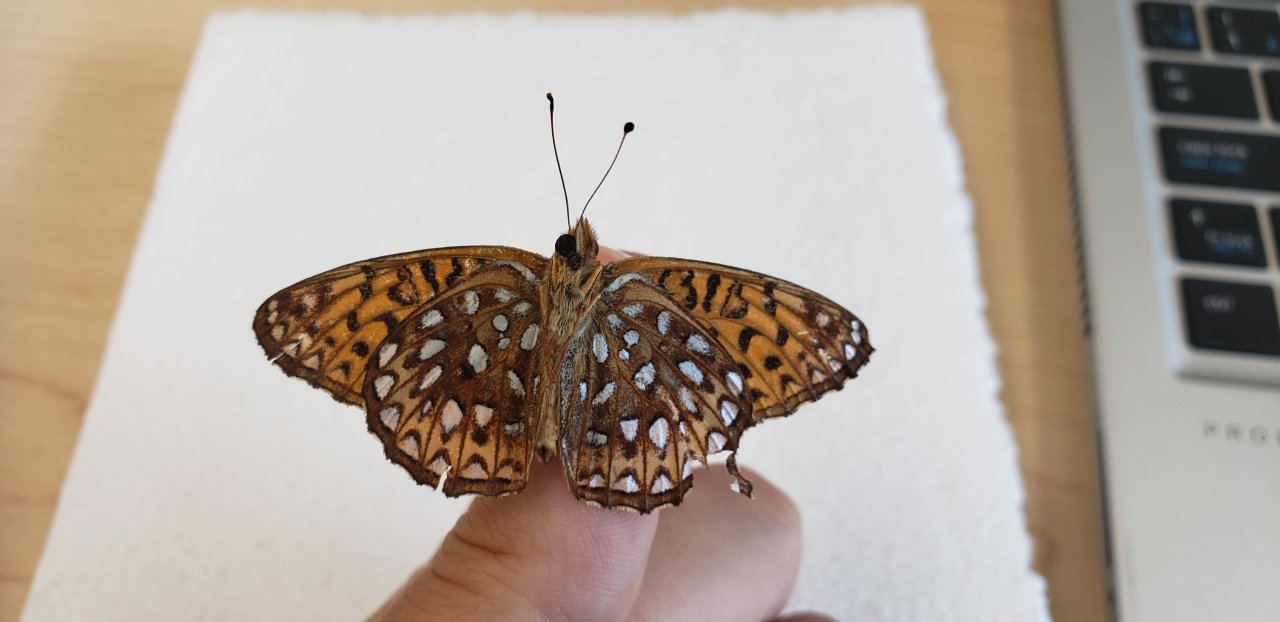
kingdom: Animalia
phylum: Arthropoda
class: Insecta
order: Lepidoptera
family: Nymphalidae
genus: Speyeria
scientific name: Speyeria atlantis
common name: Atlantis Fritillary
